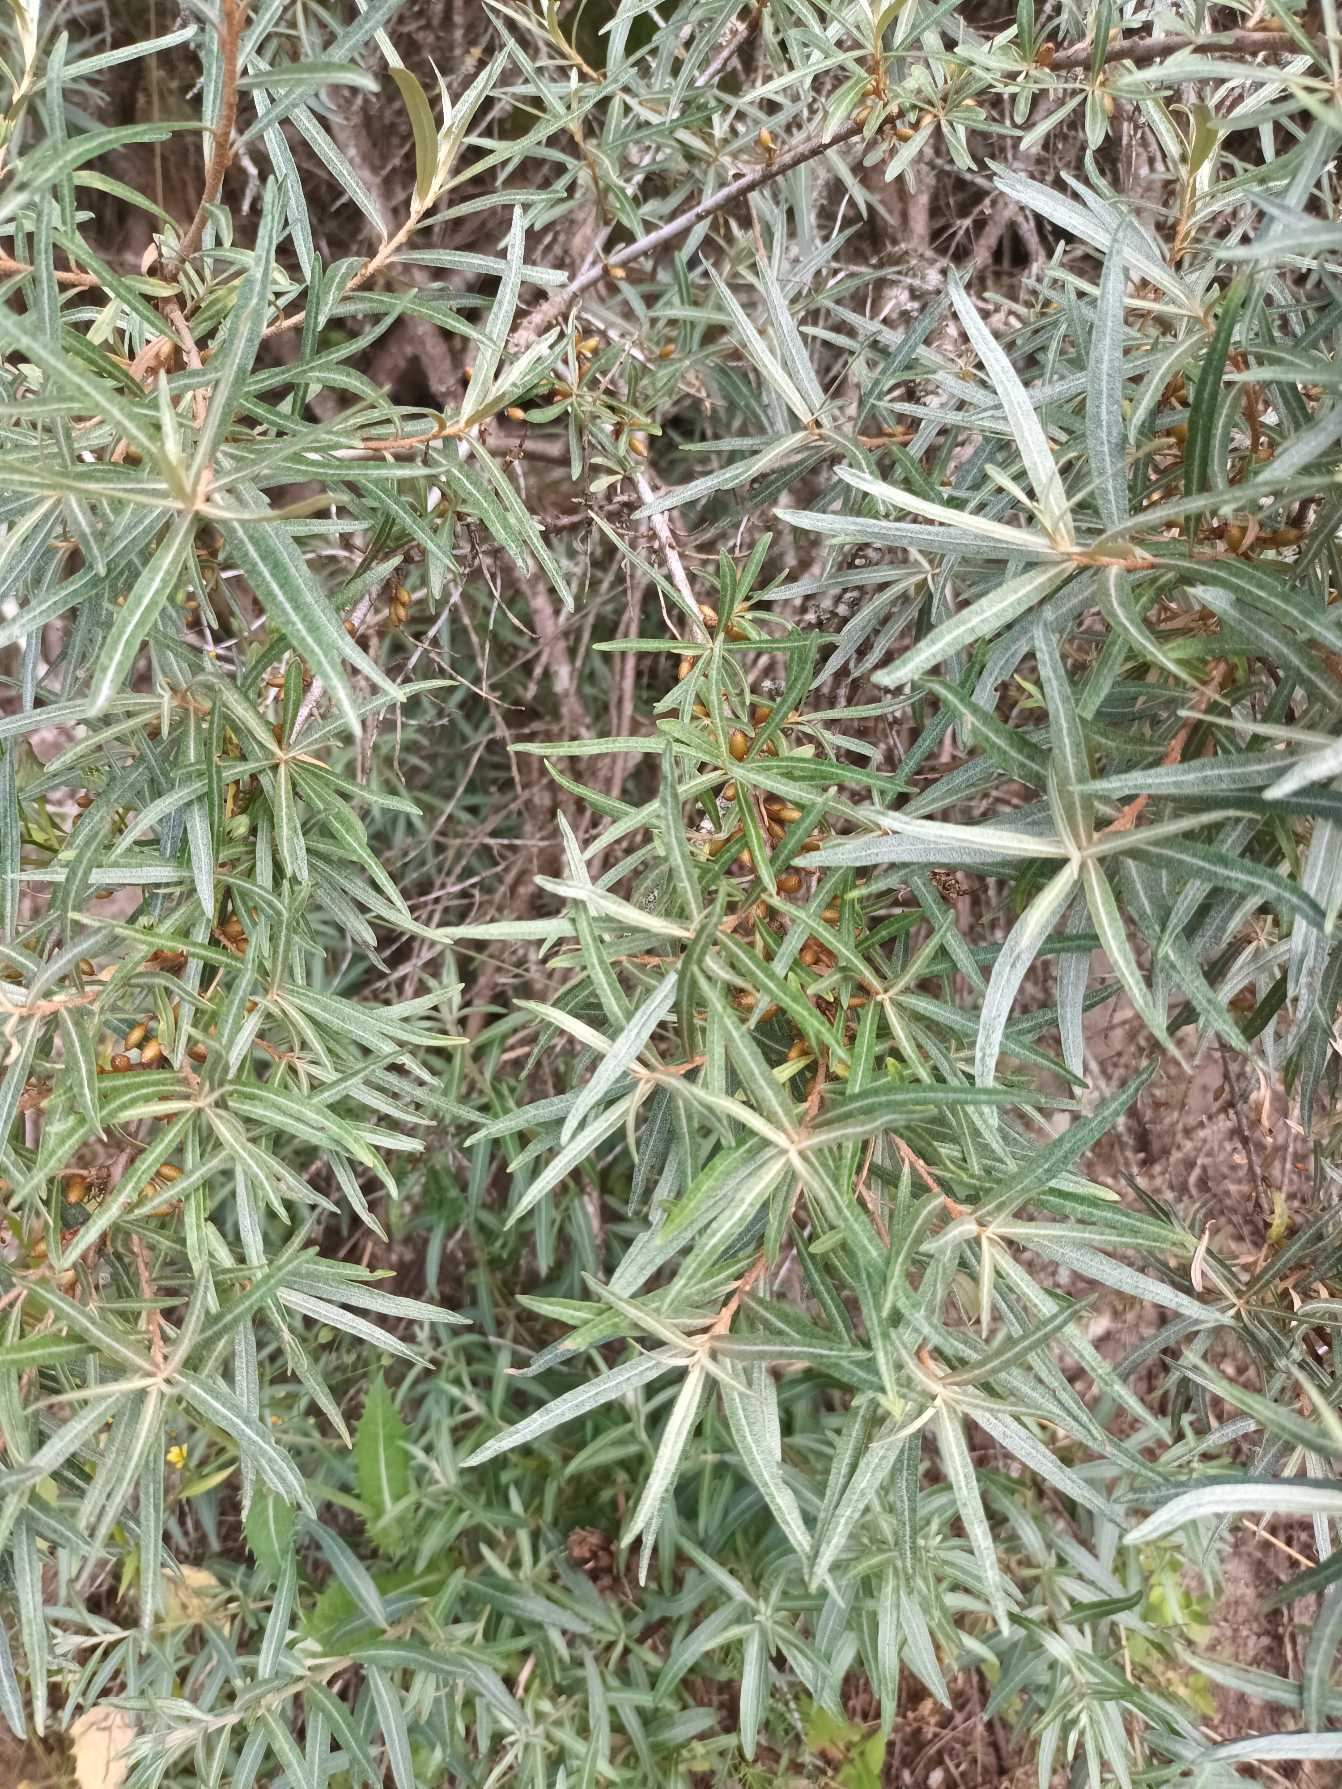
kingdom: Plantae
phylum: Tracheophyta
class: Magnoliopsida
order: Rosales
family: Elaeagnaceae
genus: Hippophae
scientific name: Hippophae rhamnoides
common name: Havtorn
